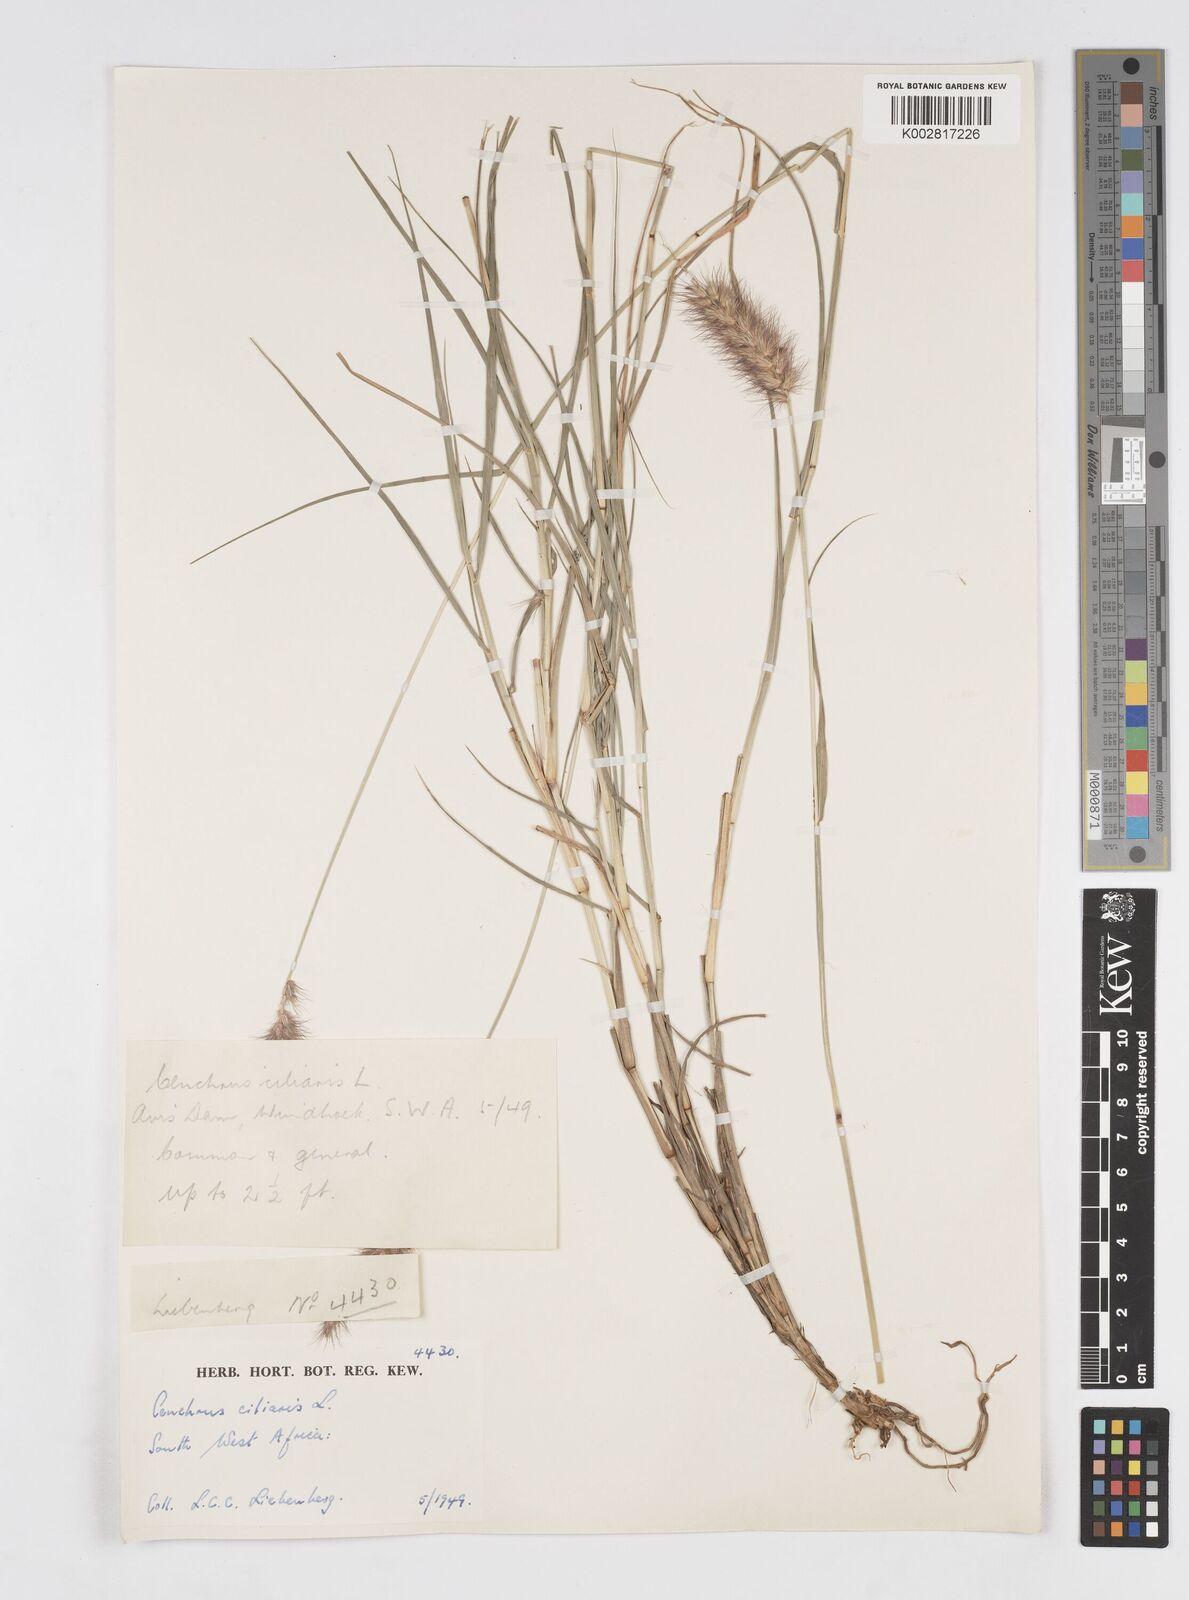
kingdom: Plantae
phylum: Tracheophyta
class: Liliopsida
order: Poales
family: Poaceae
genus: Cenchrus
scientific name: Cenchrus ciliaris
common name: Buffelgrass
